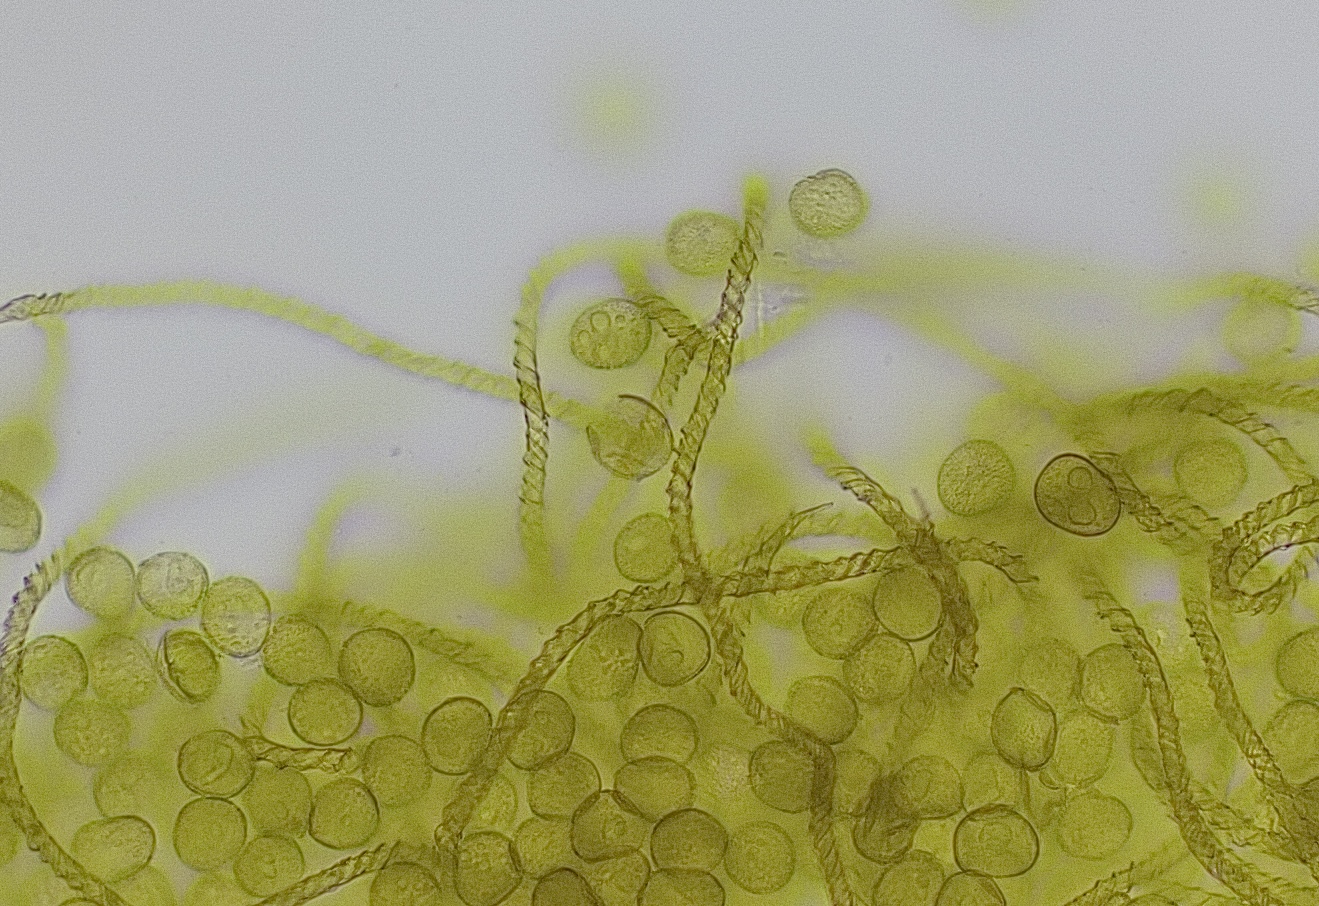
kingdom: Protozoa
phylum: Mycetozoa
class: Myxomycetes
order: Trichiales
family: Trichiaceae
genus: Trichia
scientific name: Trichia varia
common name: foranderlig hårbold
